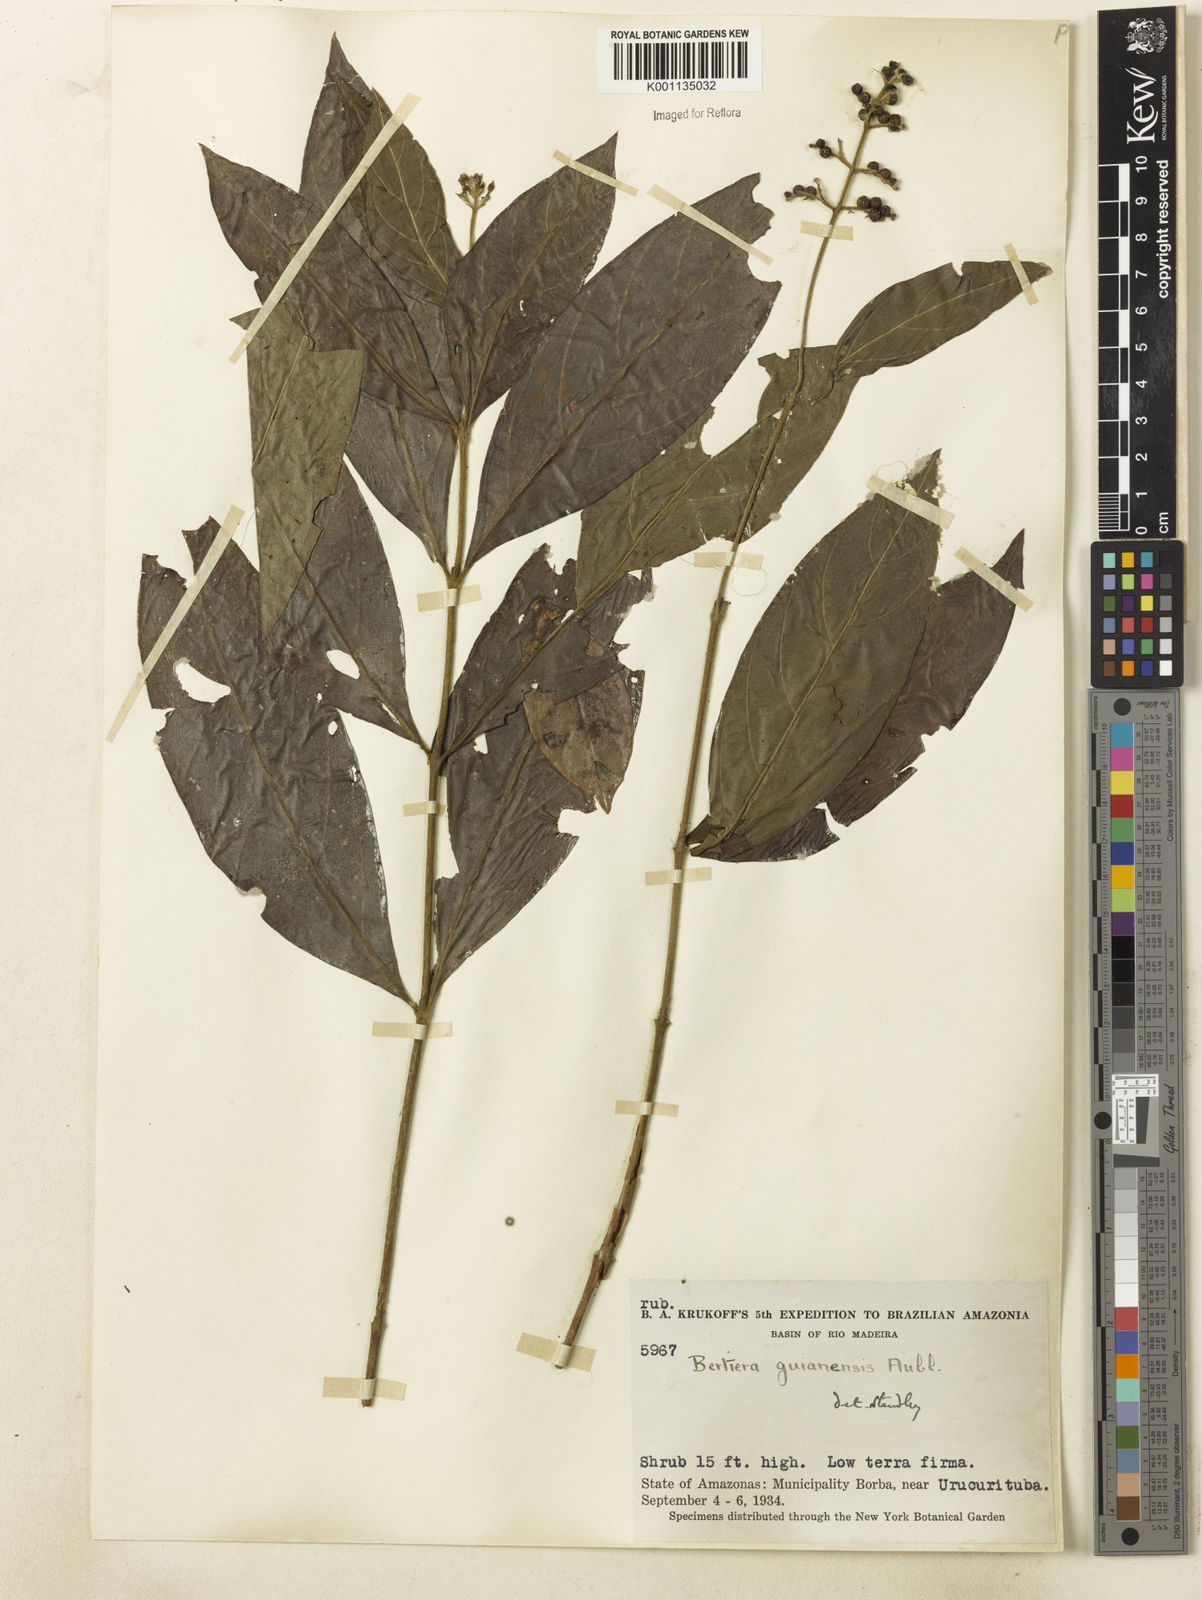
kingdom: Plantae
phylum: Tracheophyta
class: Magnoliopsida
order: Gentianales
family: Rubiaceae
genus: Bertiera
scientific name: Bertiera guianensis
